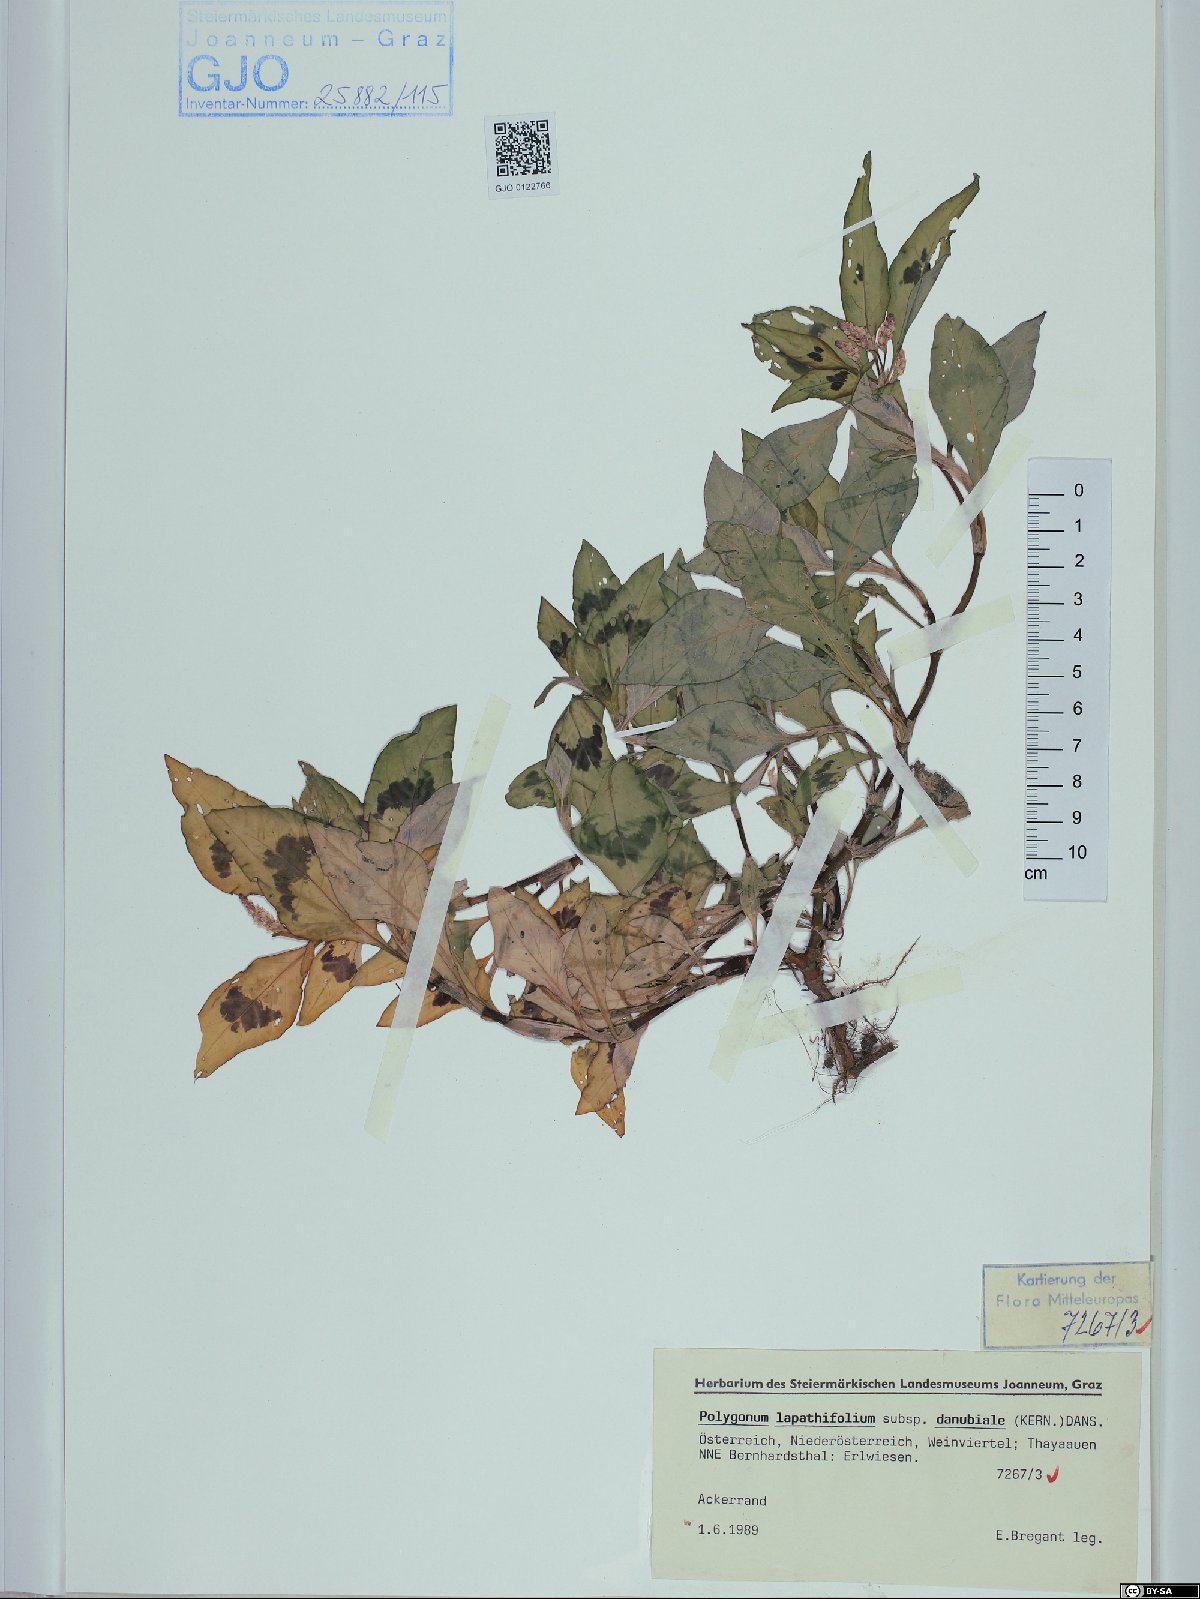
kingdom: Plantae
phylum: Tracheophyta
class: Magnoliopsida
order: Caryophyllales
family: Polygonaceae
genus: Persicaria
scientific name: Persicaria lapathifolia
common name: Curlytop knotweed
